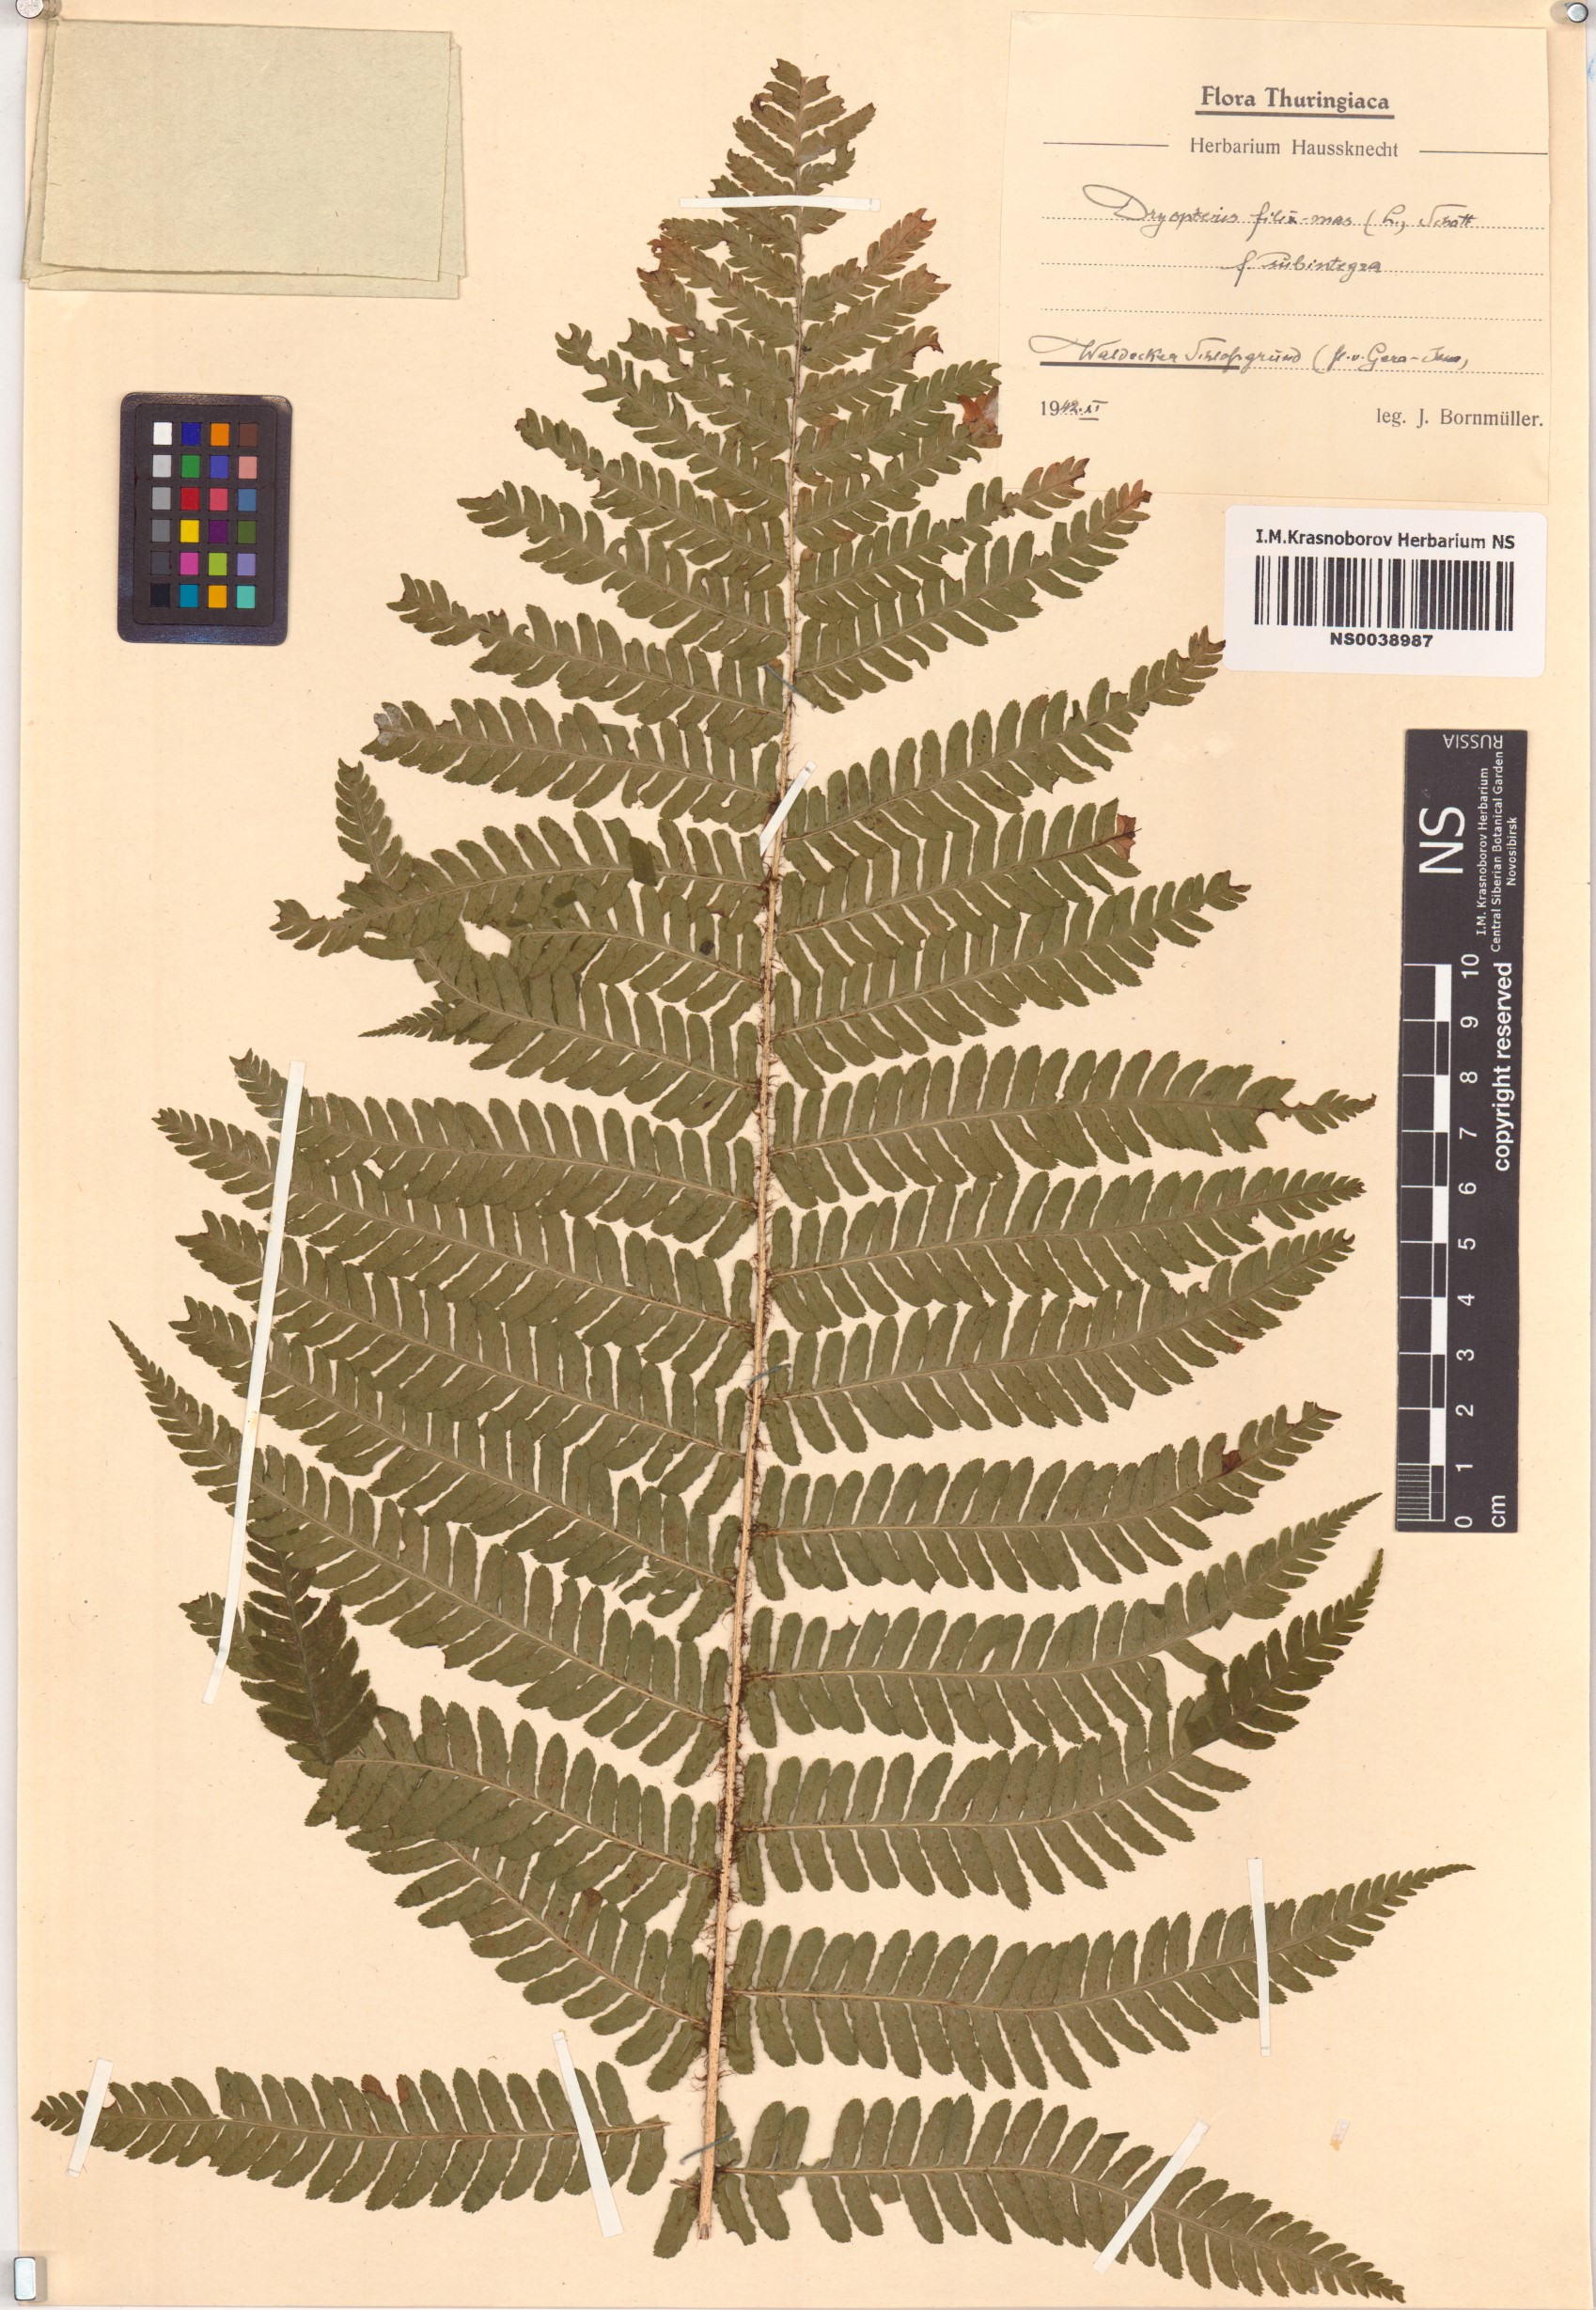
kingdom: Plantae
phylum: Tracheophyta
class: Polypodiopsida
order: Polypodiales
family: Dryopteridaceae
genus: Dryopteris
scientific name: Dryopteris filix-mas
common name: Male fern
